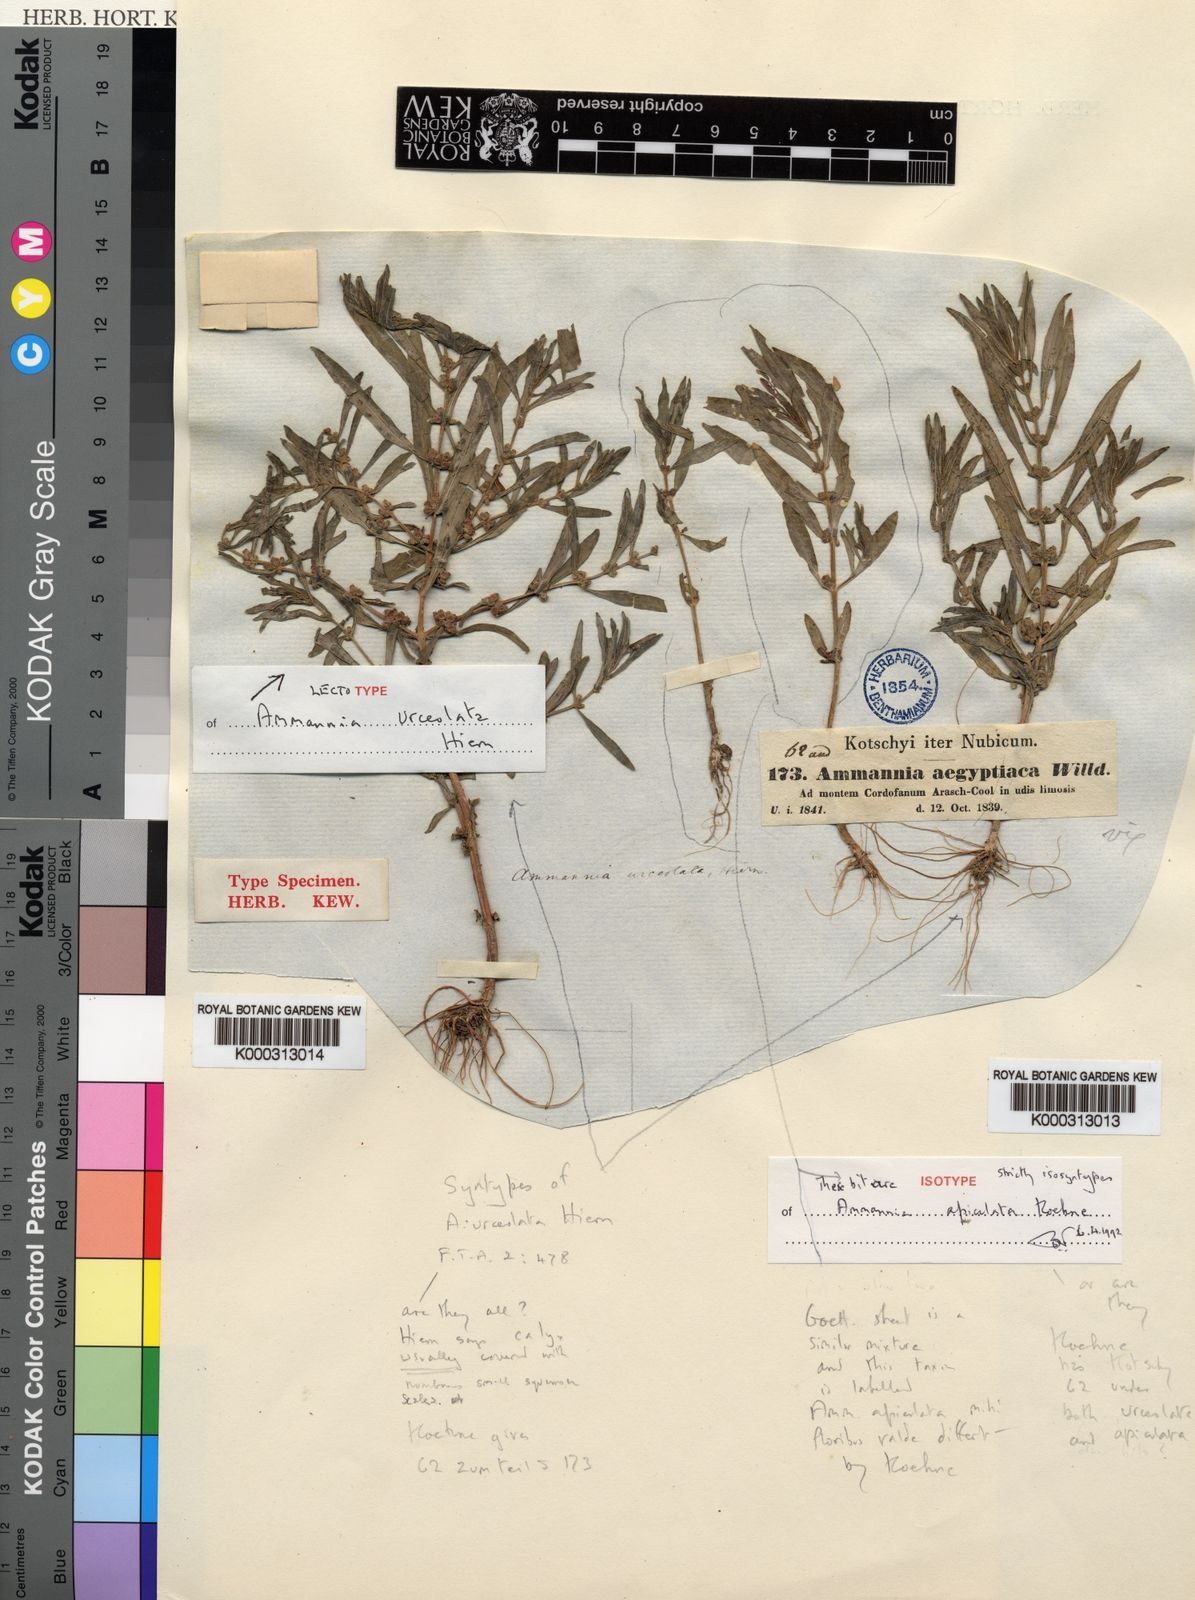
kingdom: Plantae
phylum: Tracheophyta
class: Magnoliopsida
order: Myrtales
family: Lythraceae
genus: Ammannia
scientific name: Ammannia urceolata
